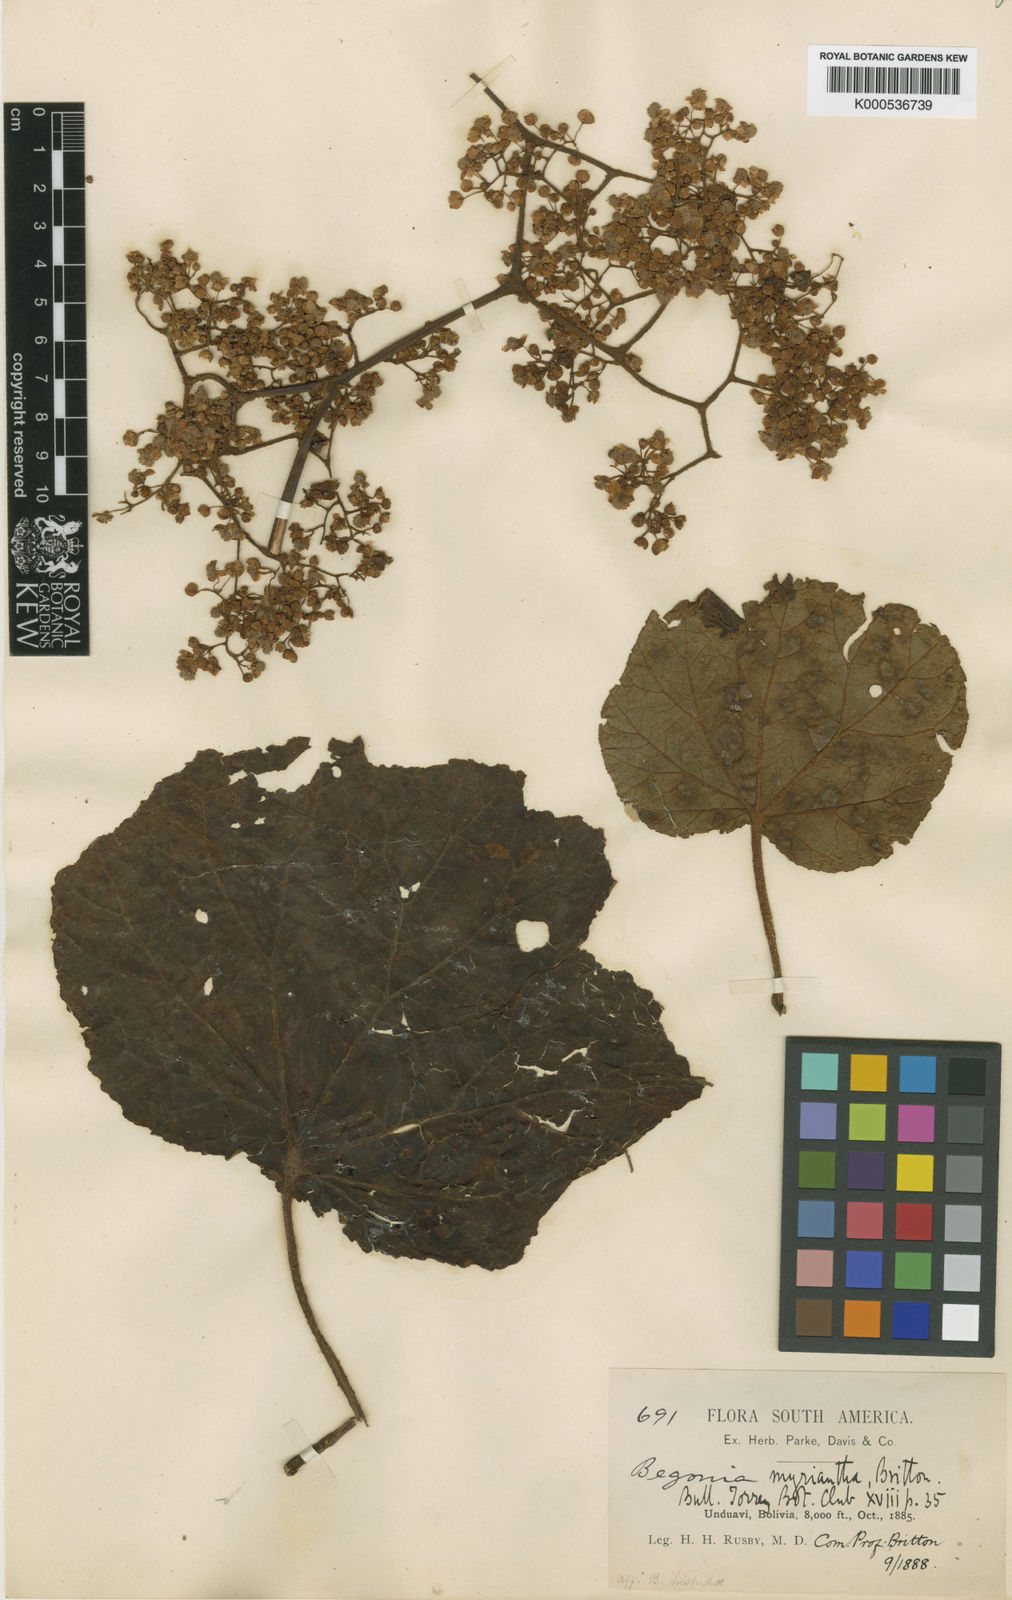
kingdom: Plantae
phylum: Tracheophyta
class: Magnoliopsida
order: Cucurbitales
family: Begoniaceae
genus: Begonia
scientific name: Begonia parviflora
